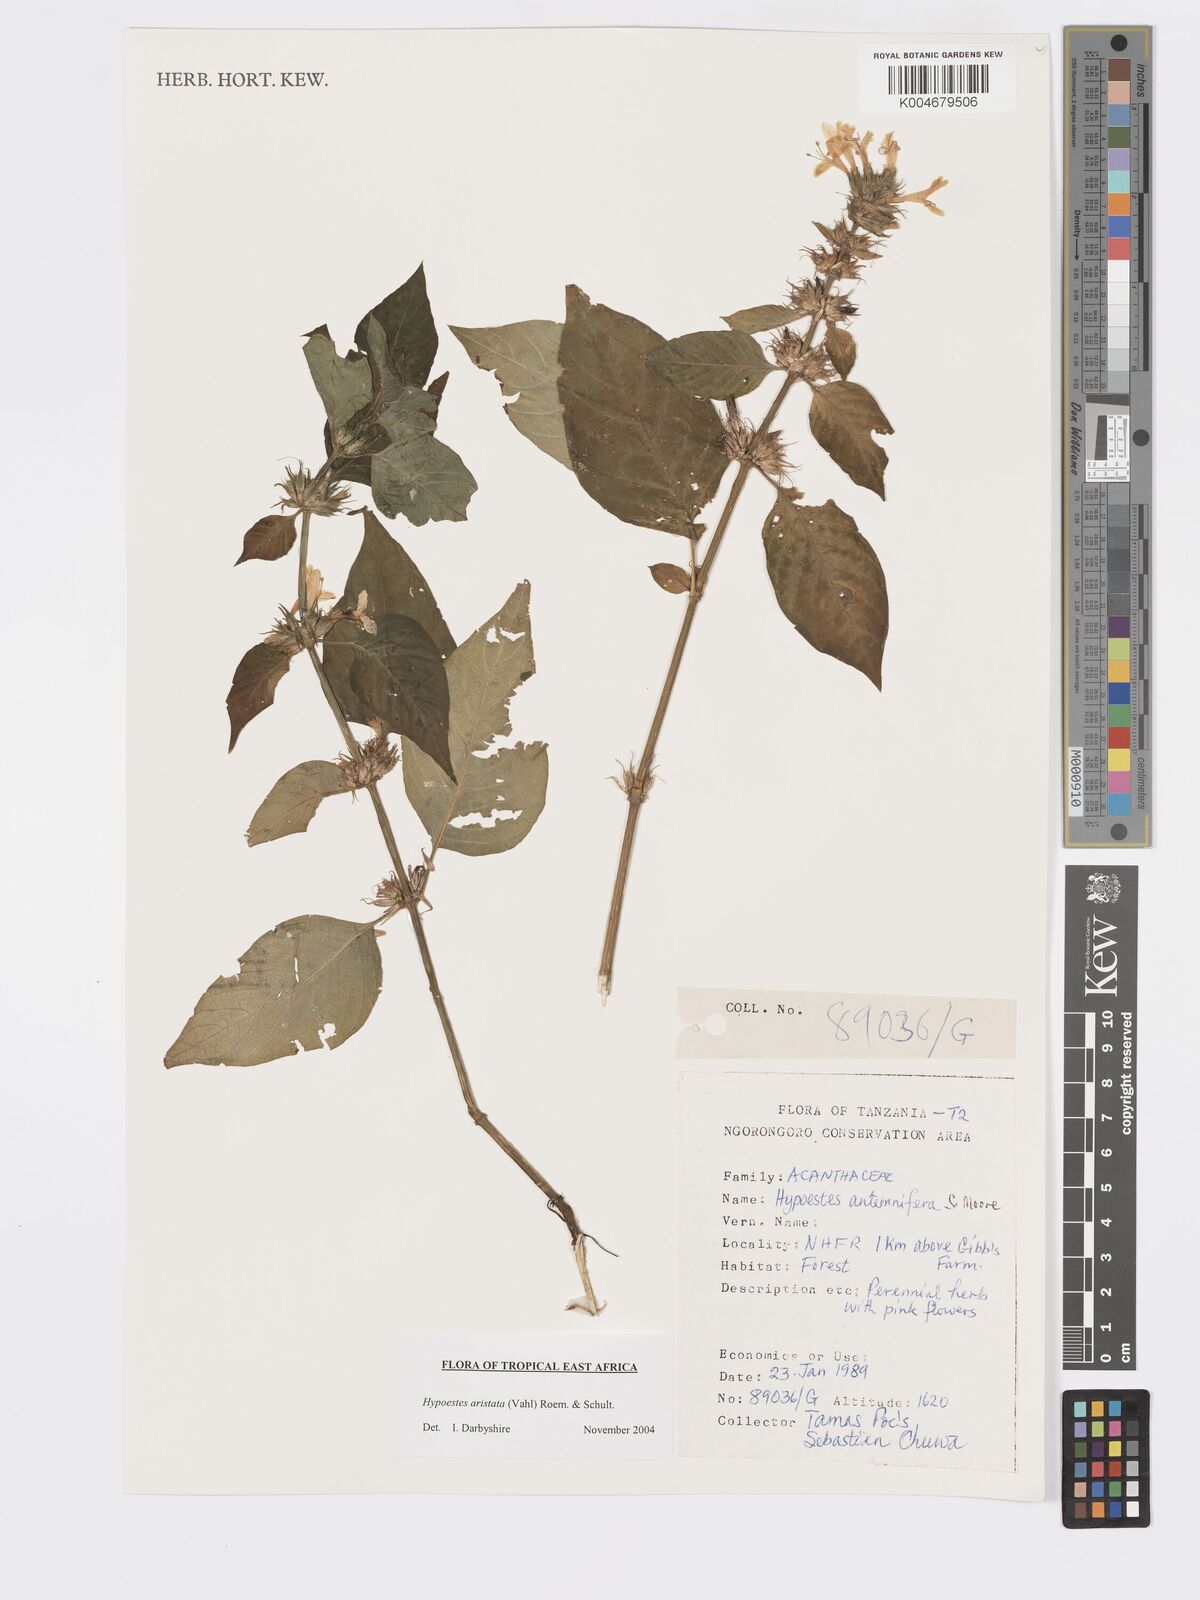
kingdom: Plantae
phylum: Tracheophyta
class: Magnoliopsida
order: Lamiales
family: Acanthaceae
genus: Hypoestes
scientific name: Hypoestes aristata
